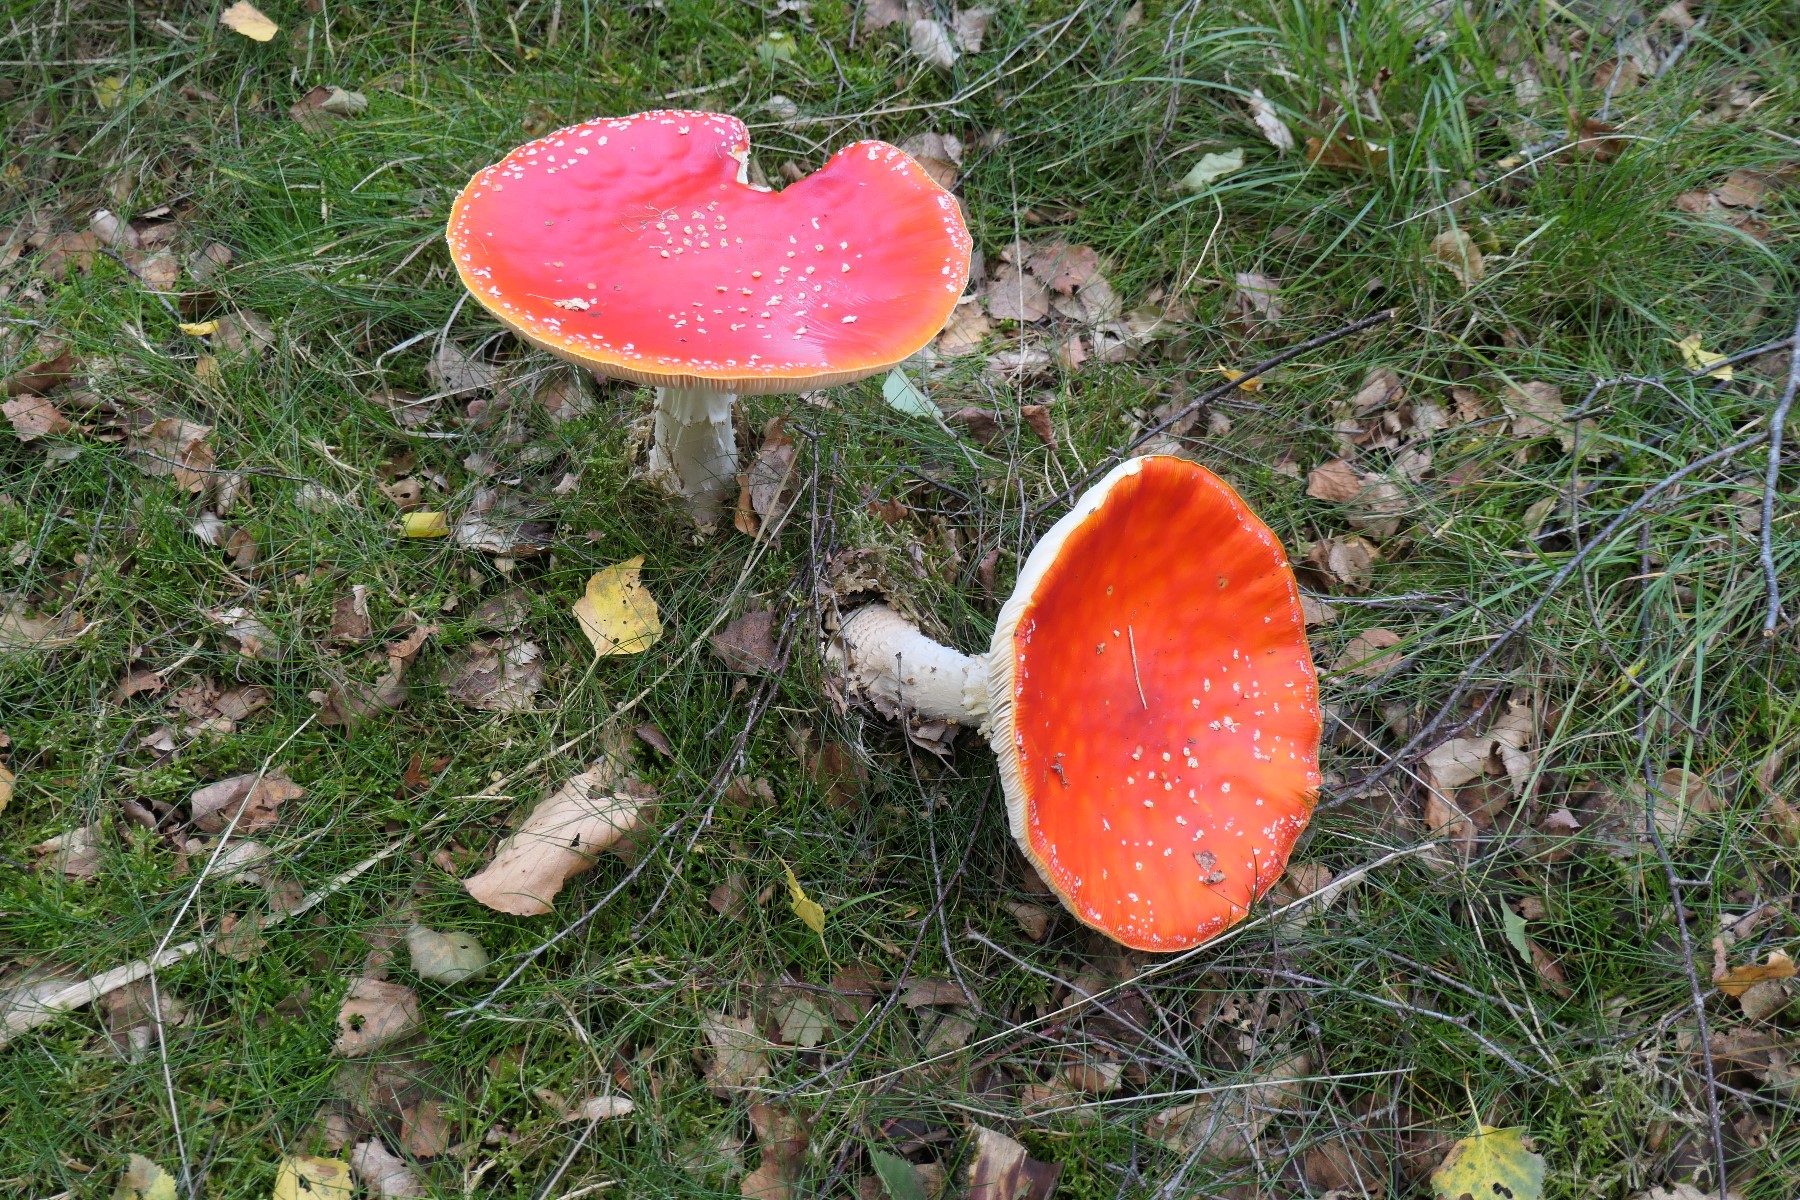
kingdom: Fungi
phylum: Basidiomycota
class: Agaricomycetes
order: Agaricales
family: Amanitaceae
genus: Amanita
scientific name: Amanita muscaria
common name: rød fluesvamp
